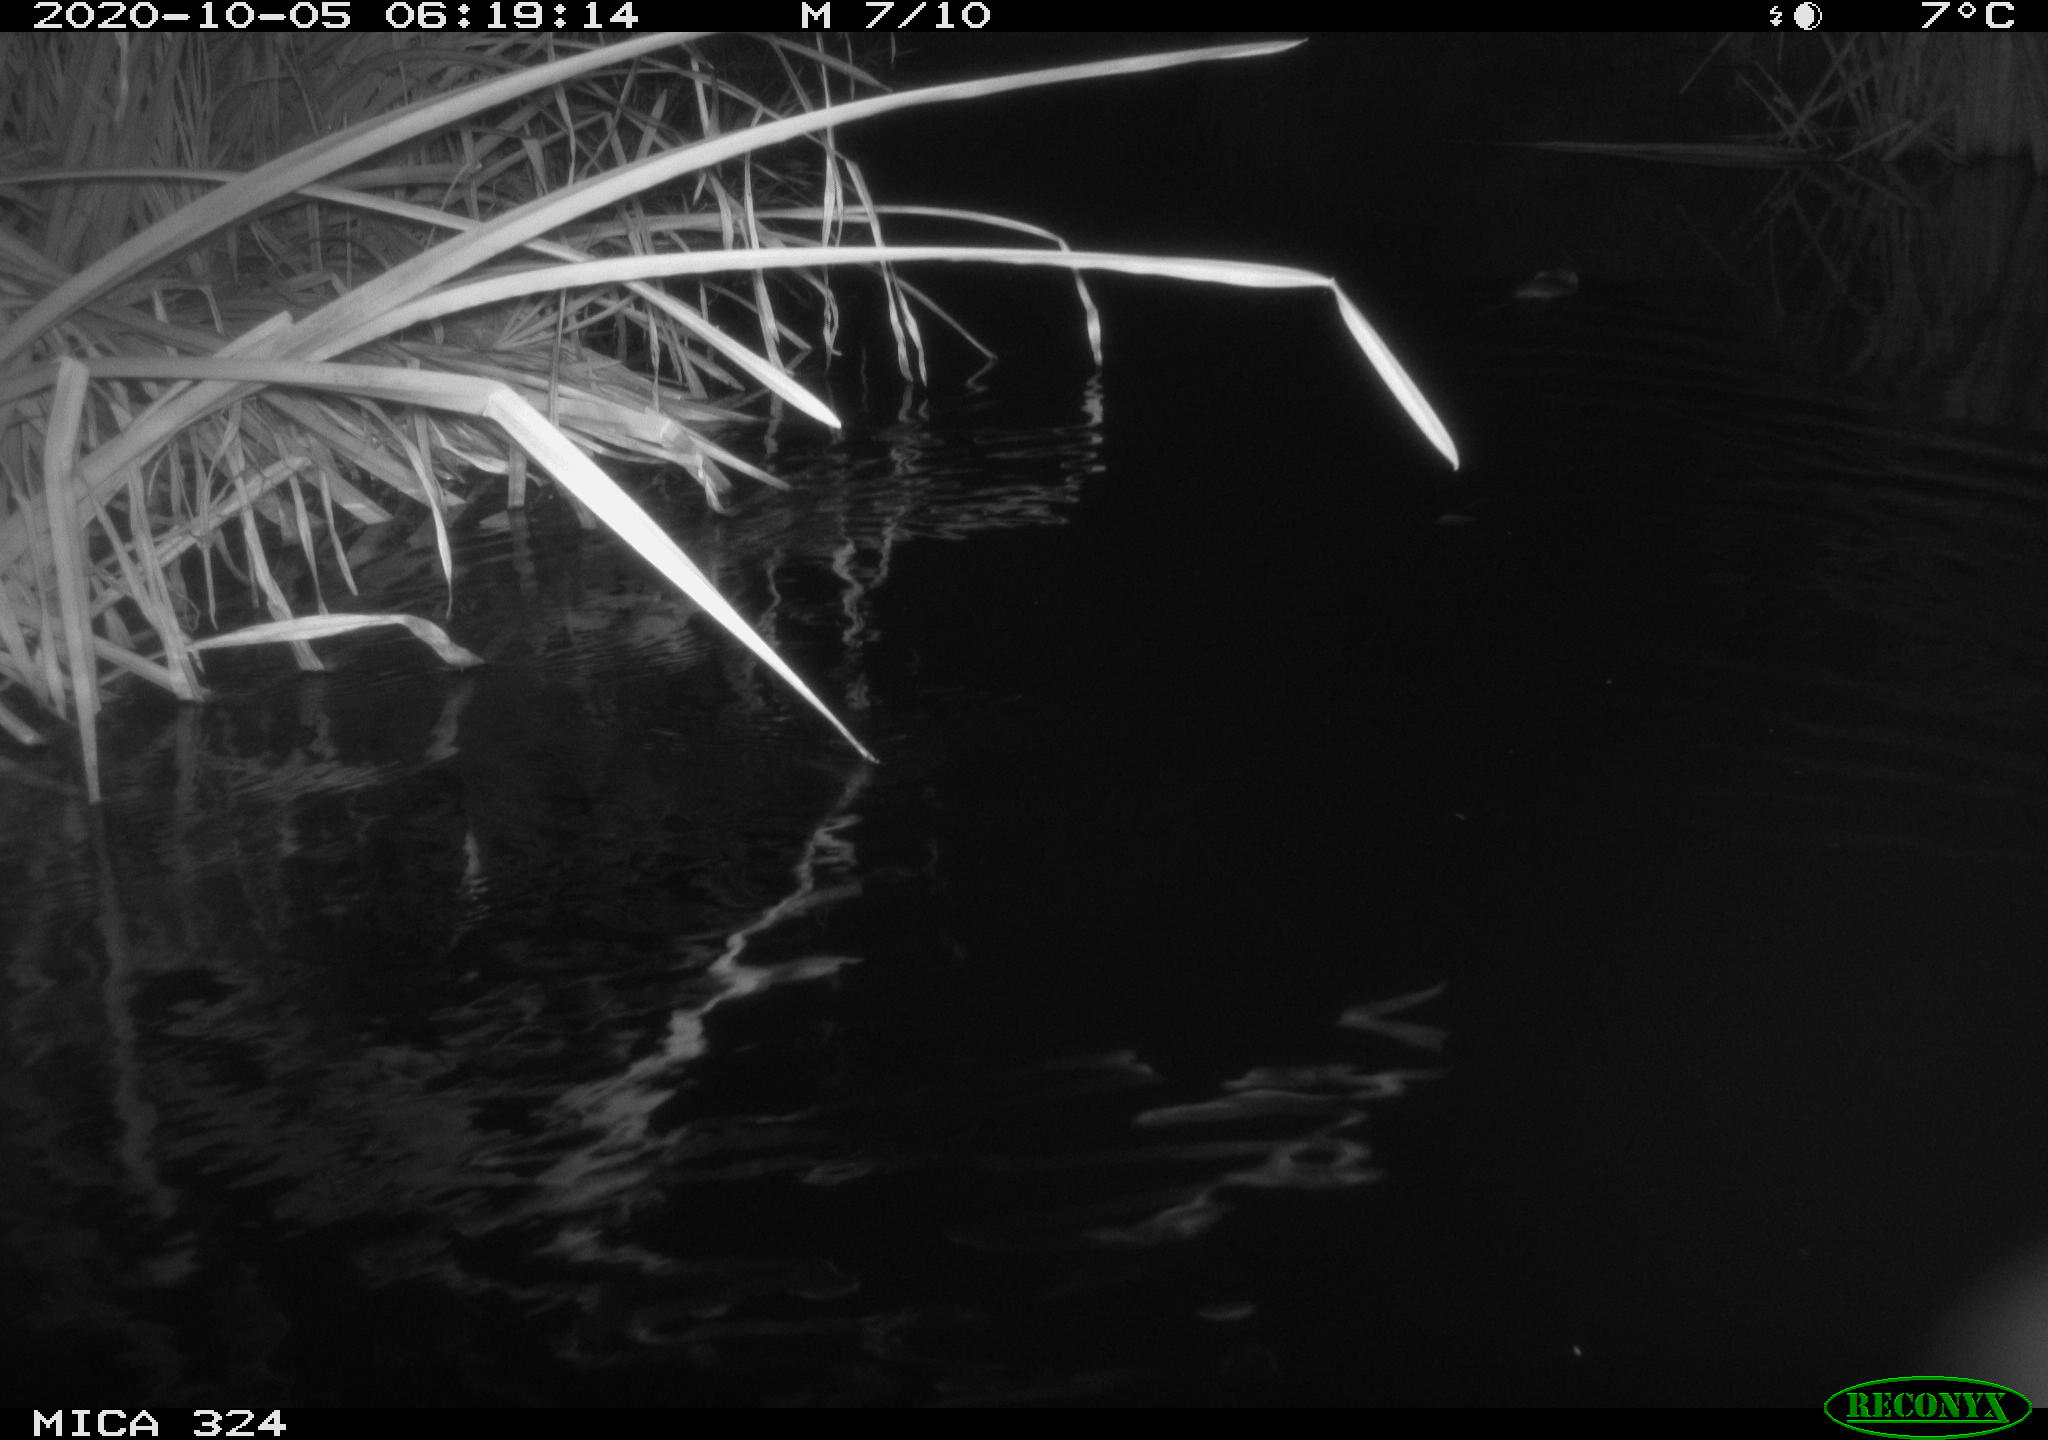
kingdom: Animalia
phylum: Chordata
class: Mammalia
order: Rodentia
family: Cricetidae
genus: Ondatra
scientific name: Ondatra zibethicus
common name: Muskrat
